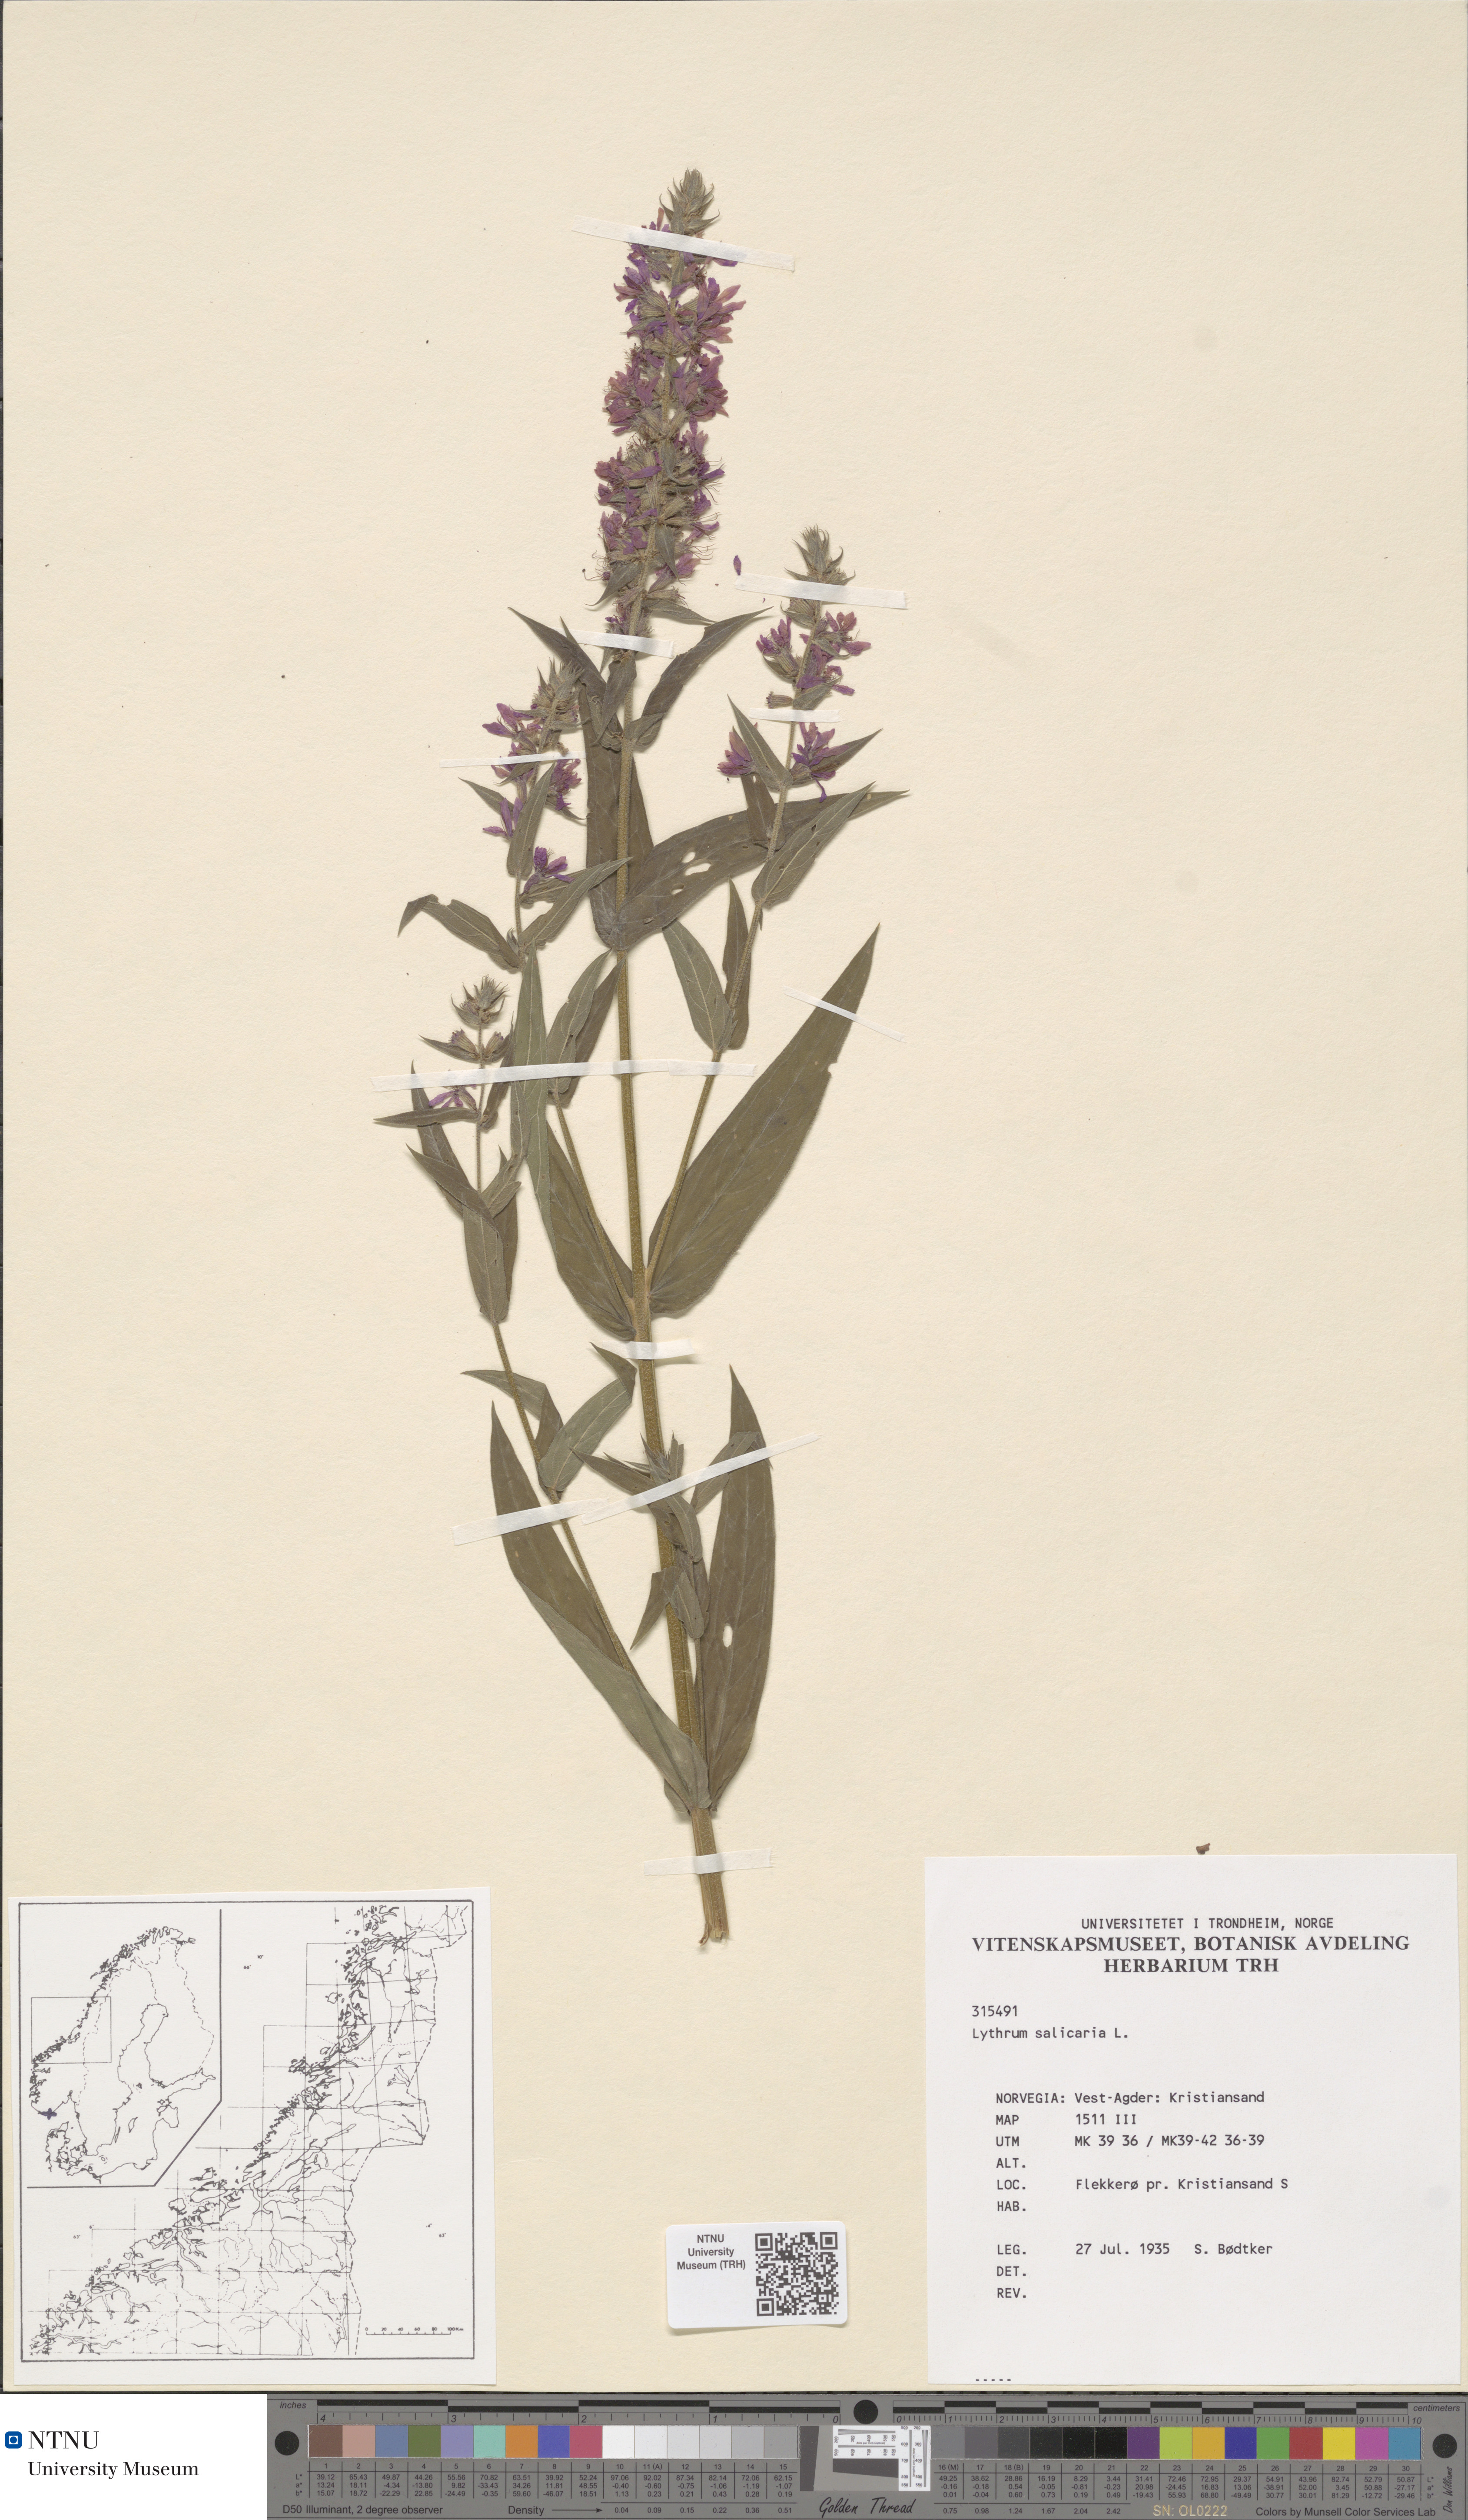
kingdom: Plantae
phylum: Tracheophyta
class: Magnoliopsida
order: Myrtales
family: Lythraceae
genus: Lythrum
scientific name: Lythrum salicaria
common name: Purple loosestrife
